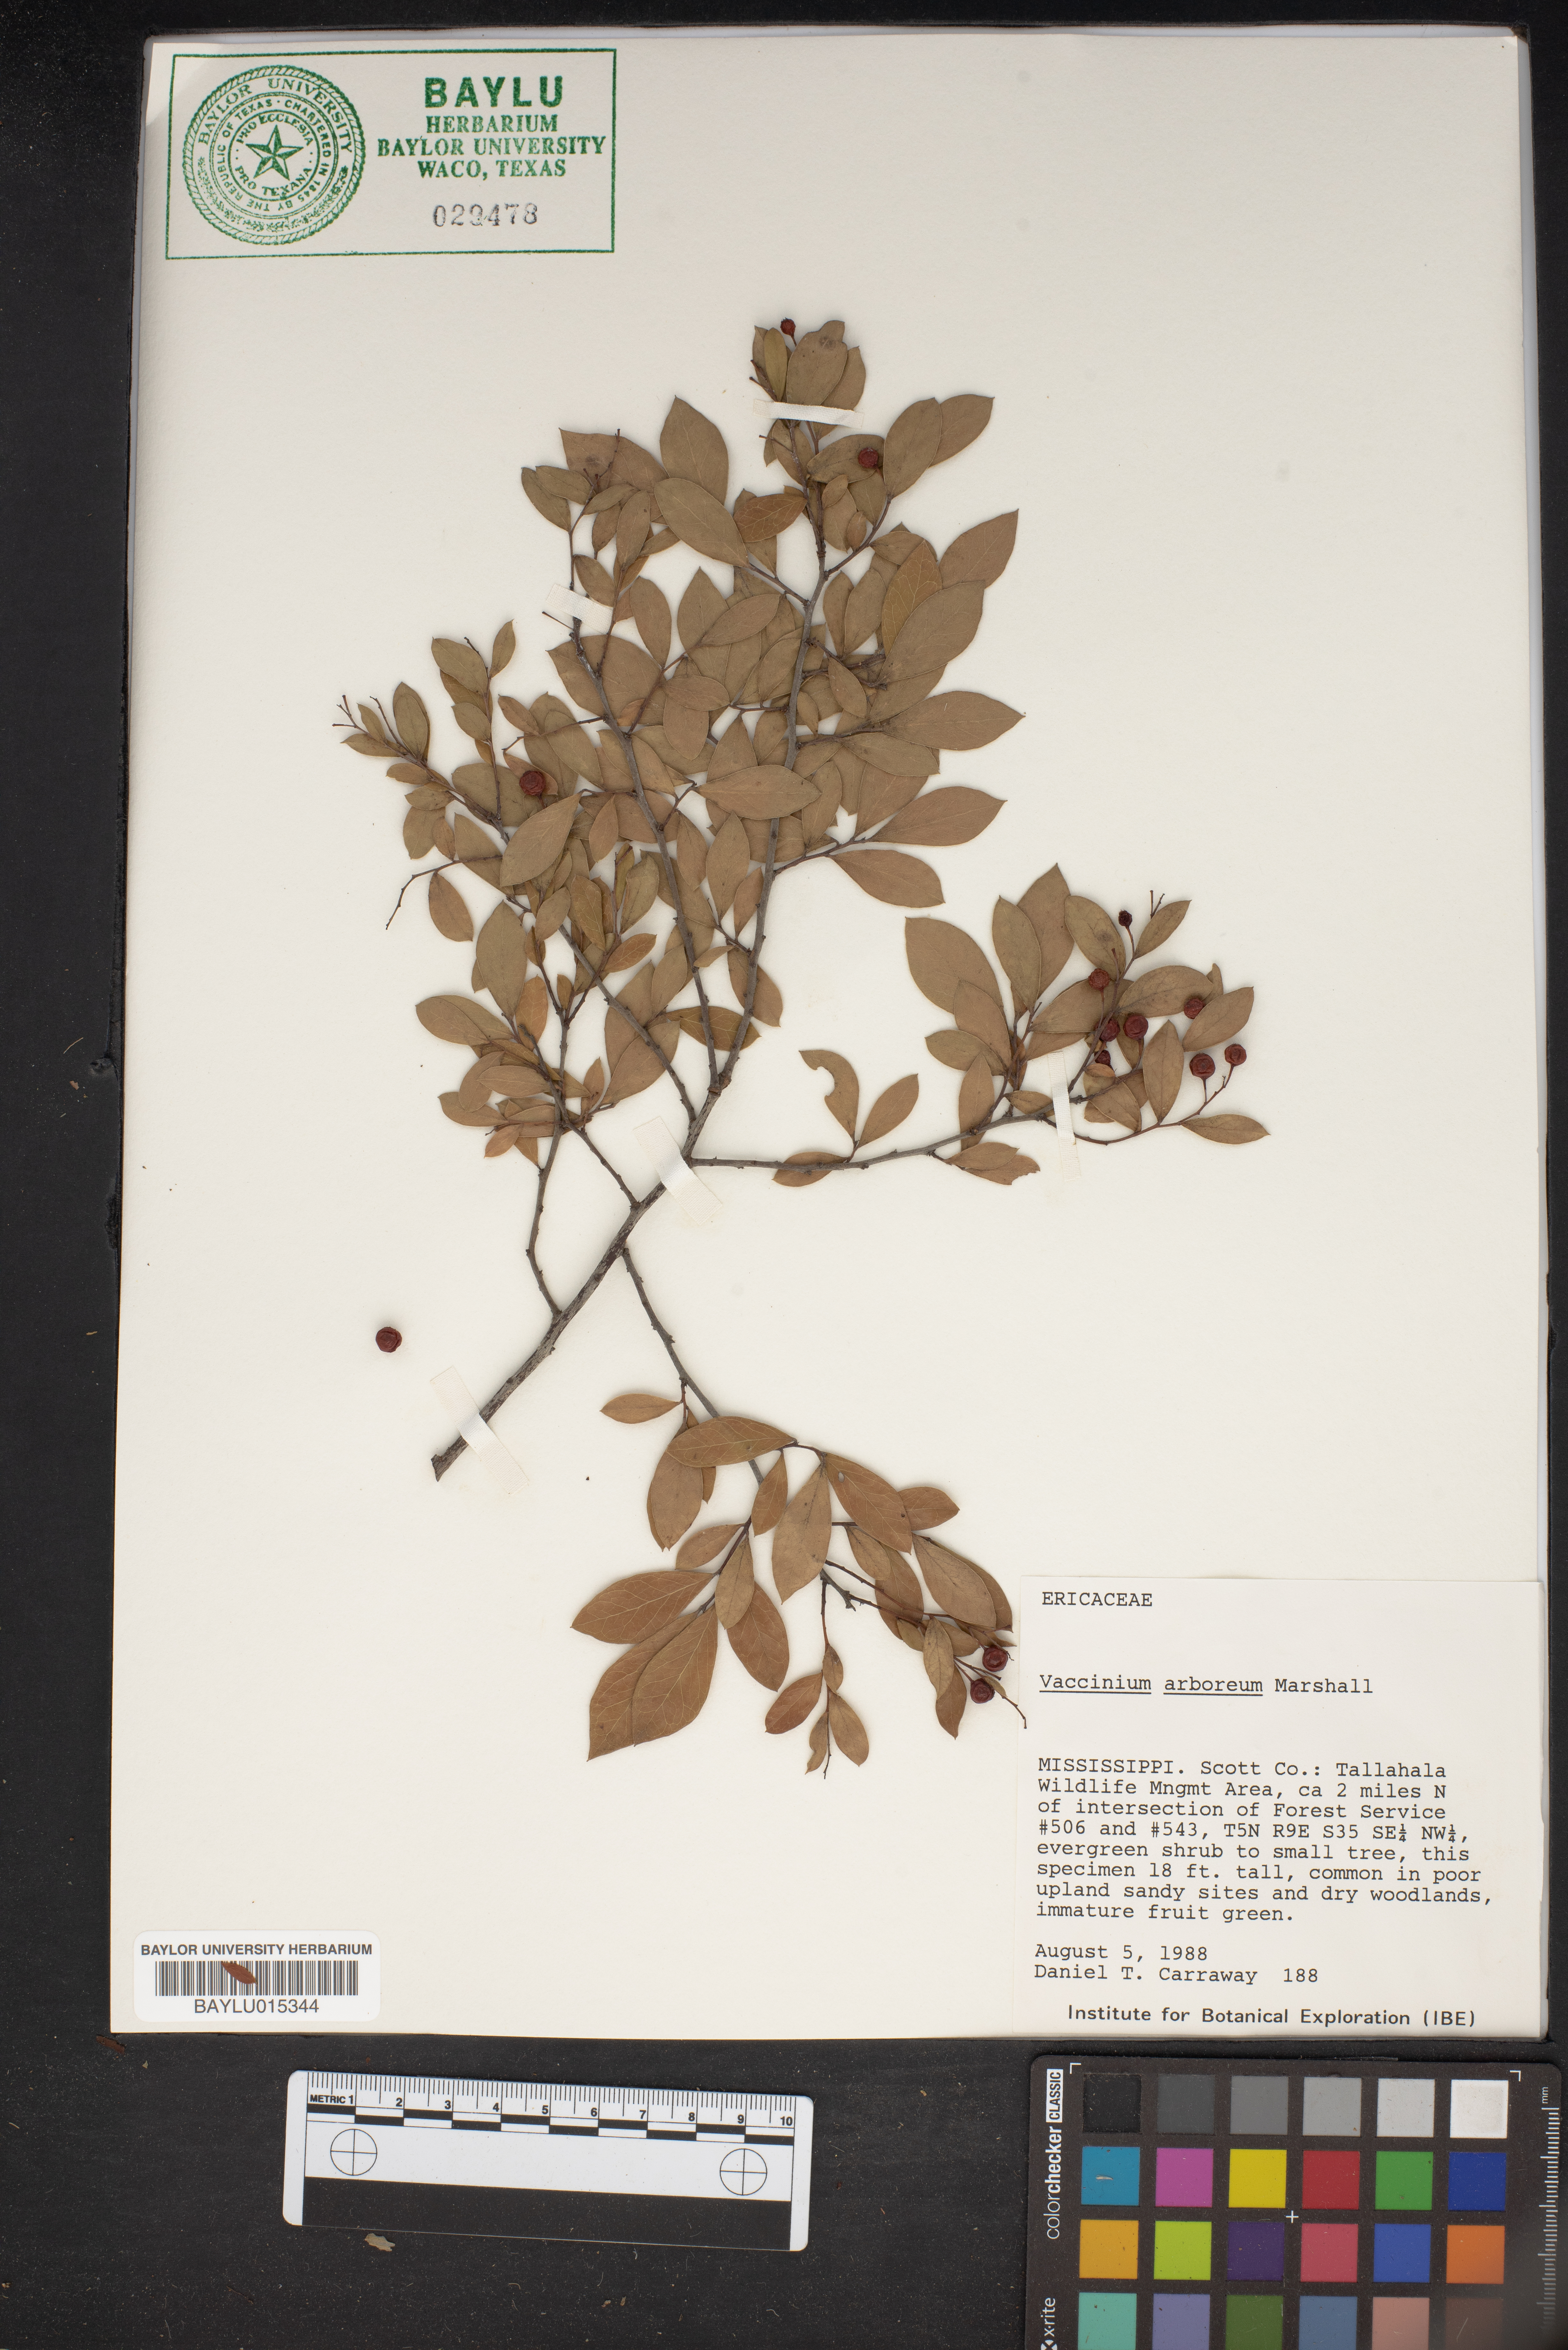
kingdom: Plantae
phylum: Tracheophyta
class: Magnoliopsida
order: Ericales
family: Ericaceae
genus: Vaccinium
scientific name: Vaccinium arboreum
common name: Farkleberry
